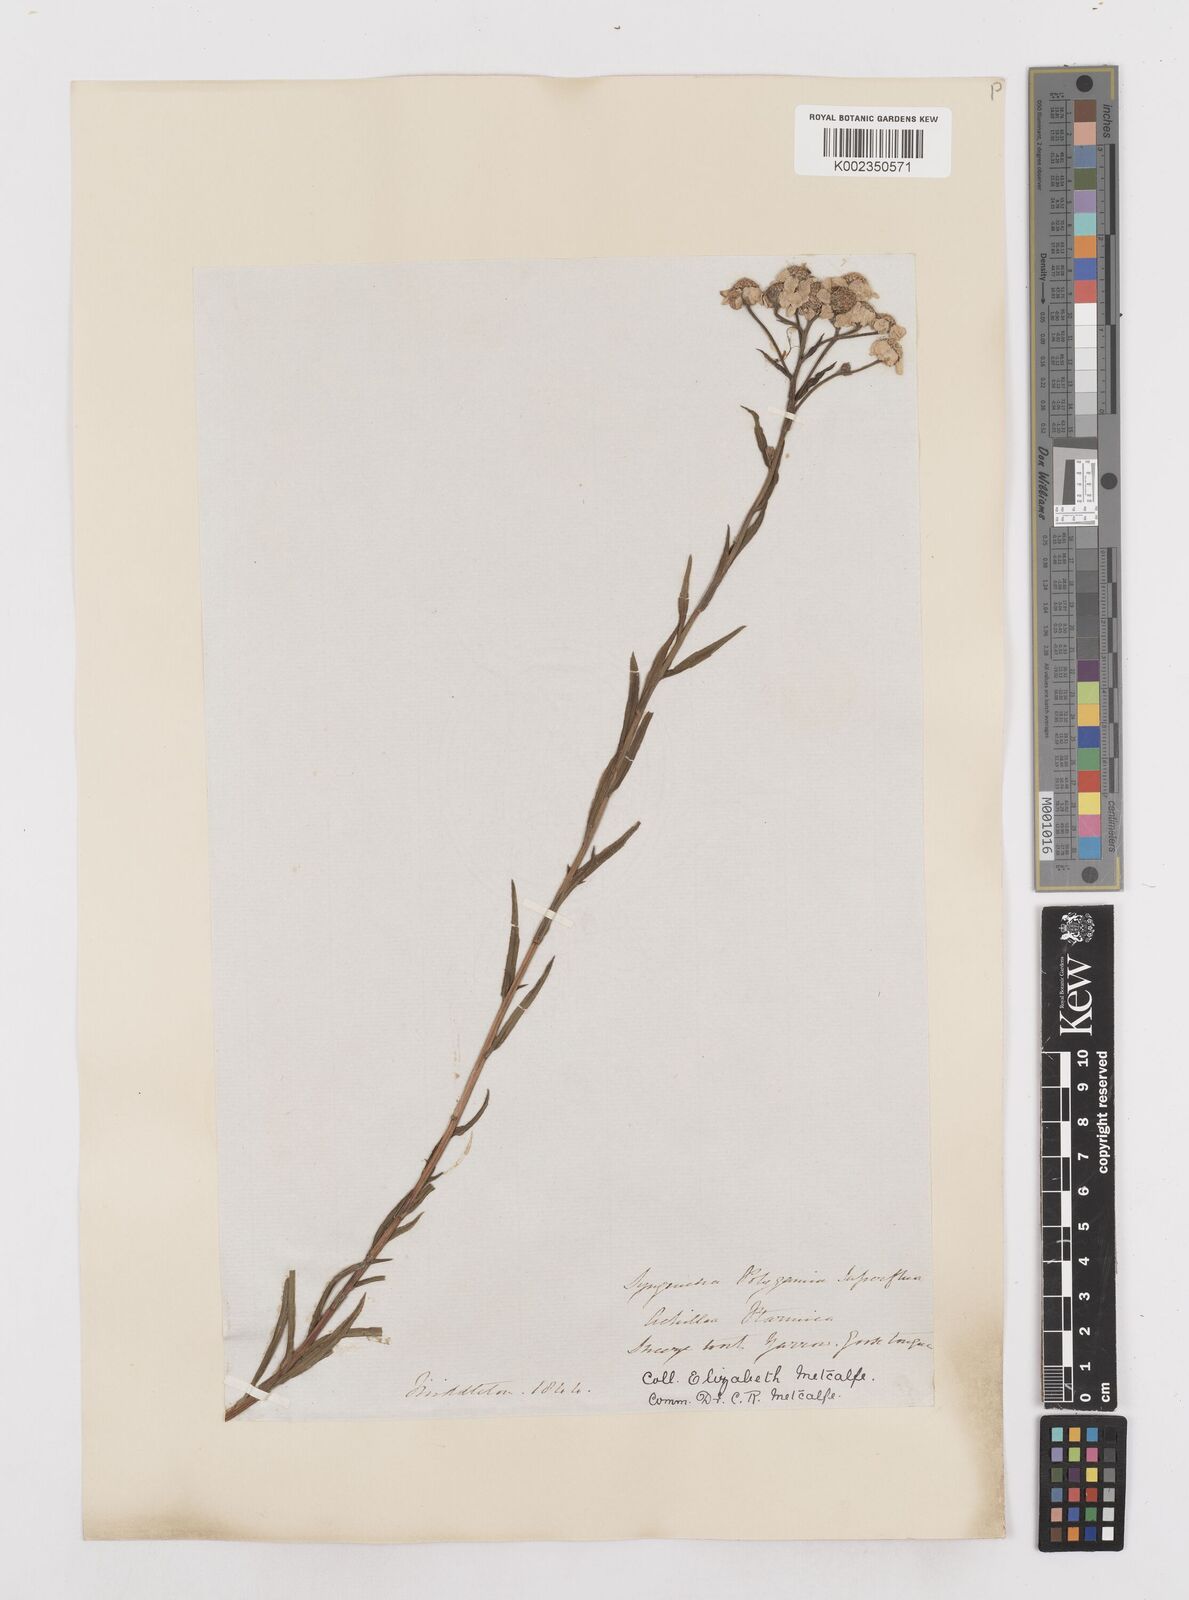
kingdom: Plantae
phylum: Tracheophyta
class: Magnoliopsida
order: Asterales
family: Asteraceae
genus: Achillea
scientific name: Achillea ptarmica
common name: Sneezeweed
